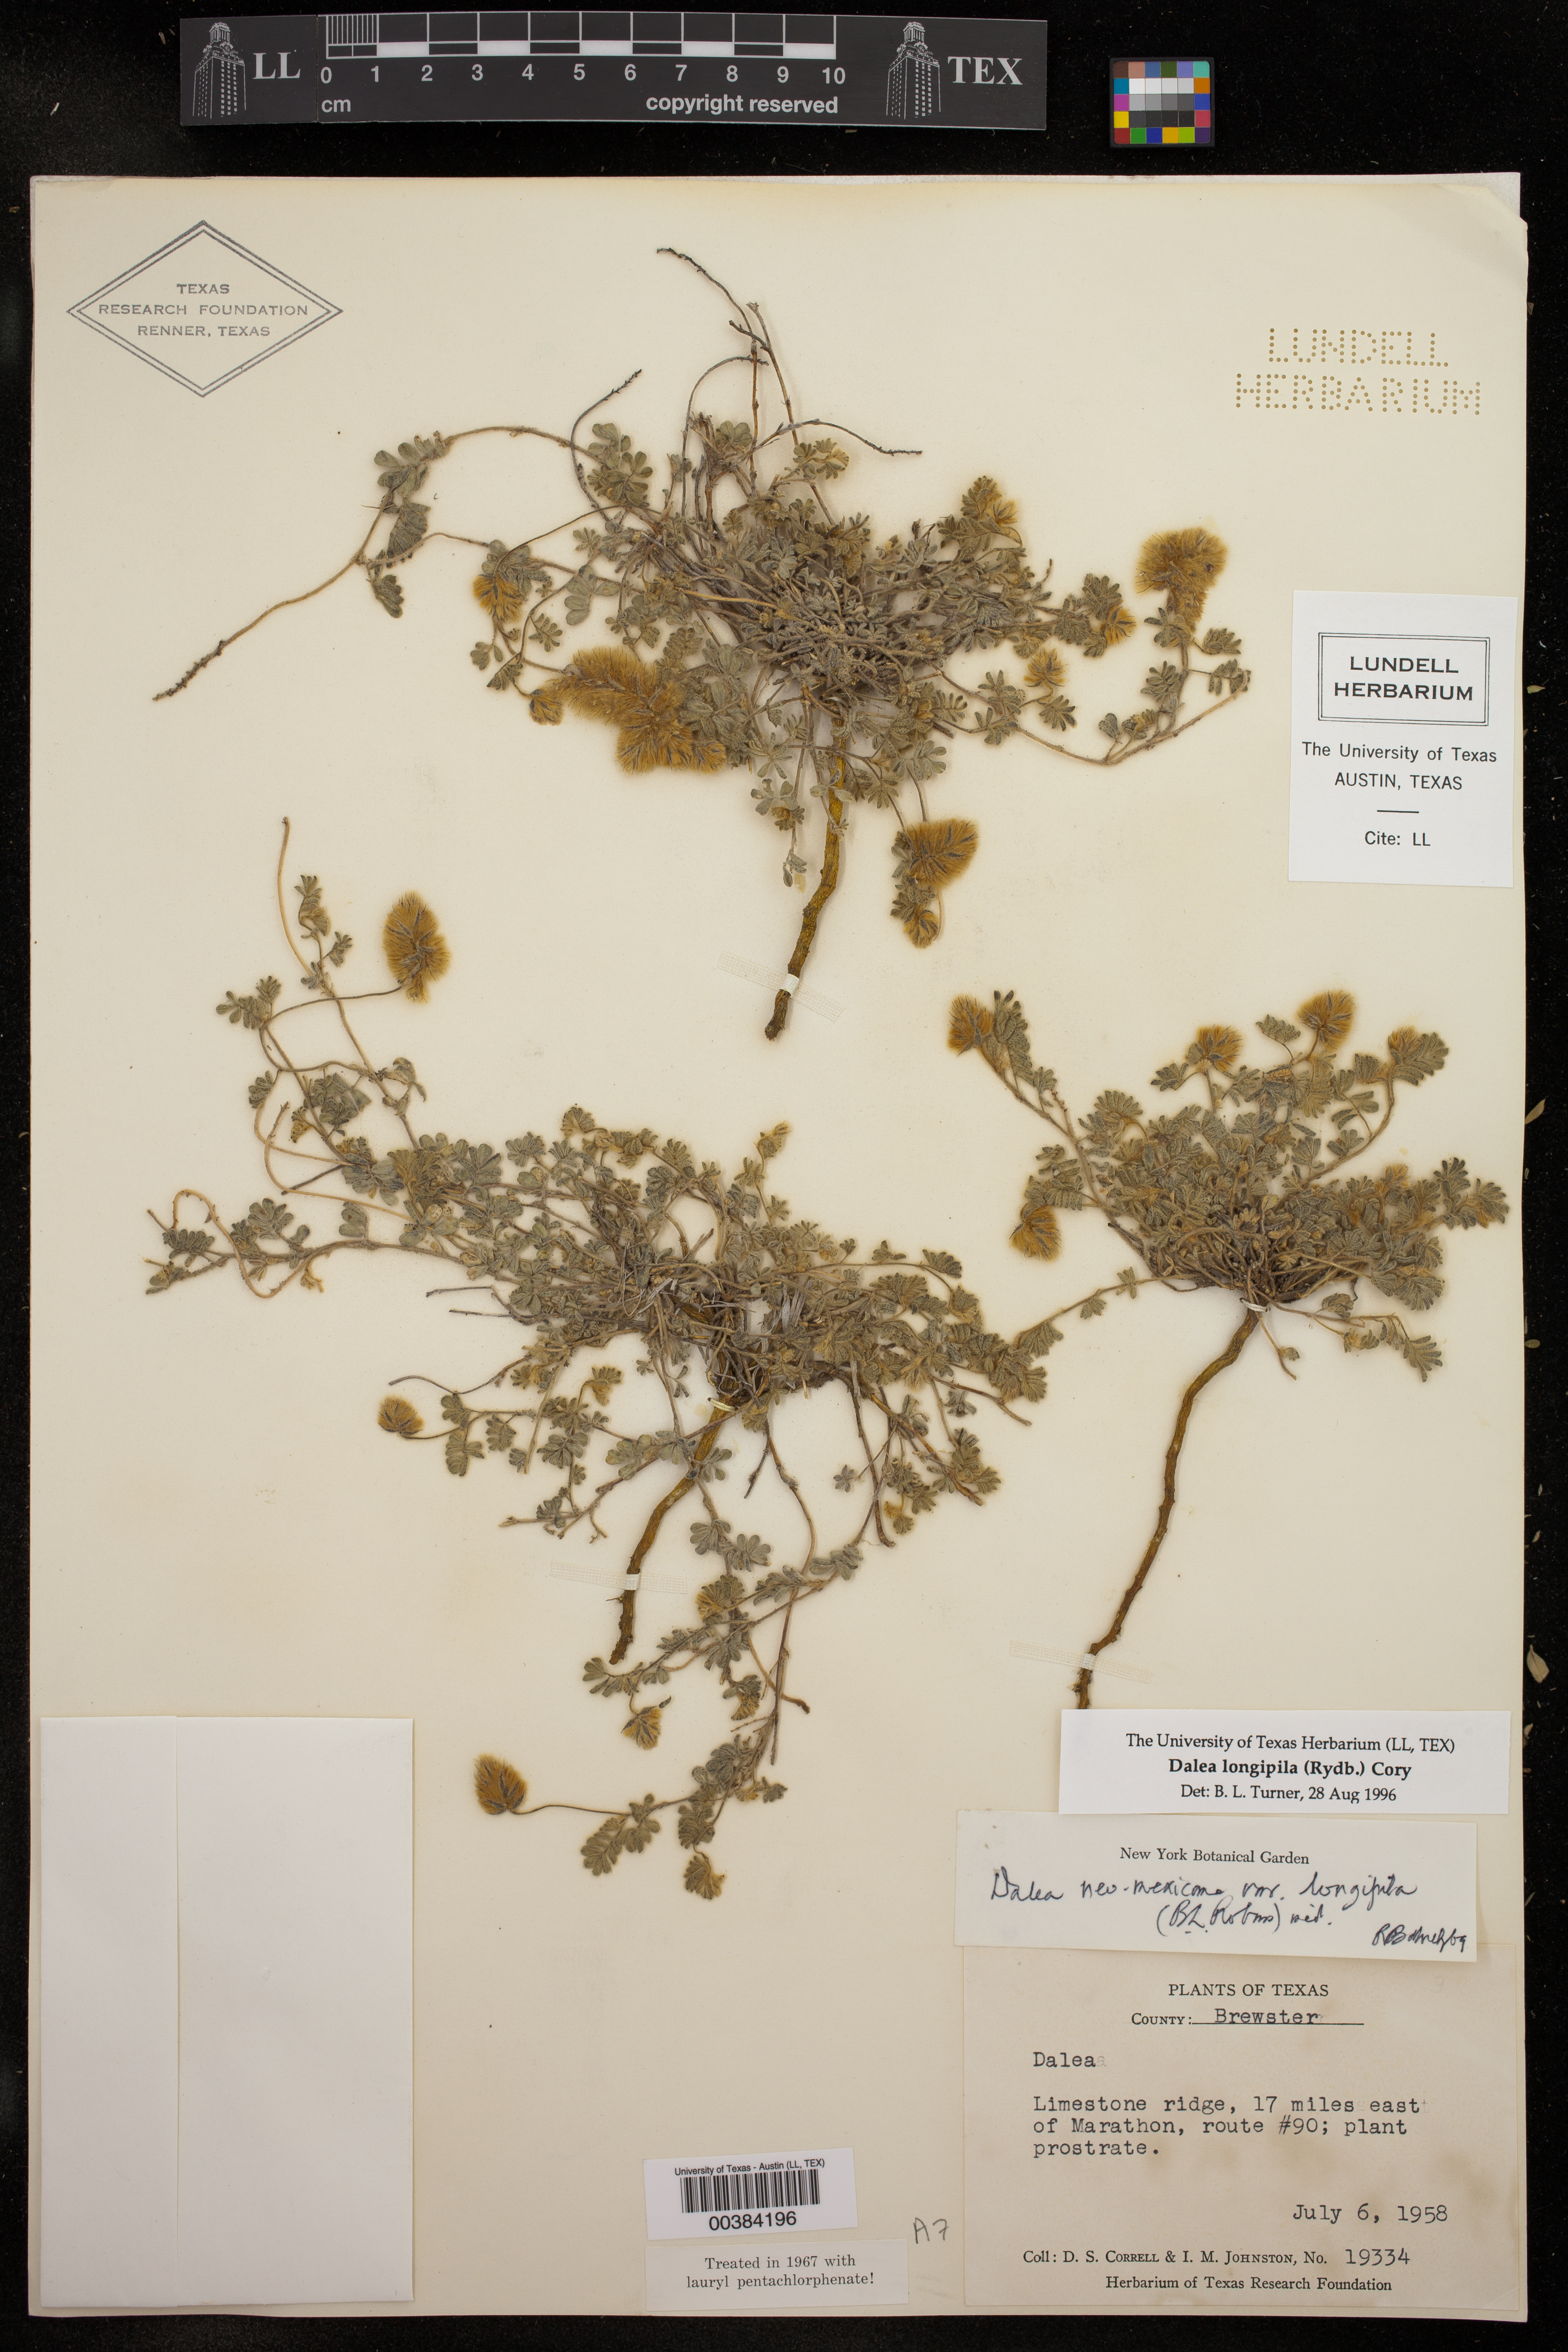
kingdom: Plantae
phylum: Tracheophyta
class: Magnoliopsida
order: Fabales
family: Fabaceae
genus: Dalea
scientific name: Dalea neomexicana
